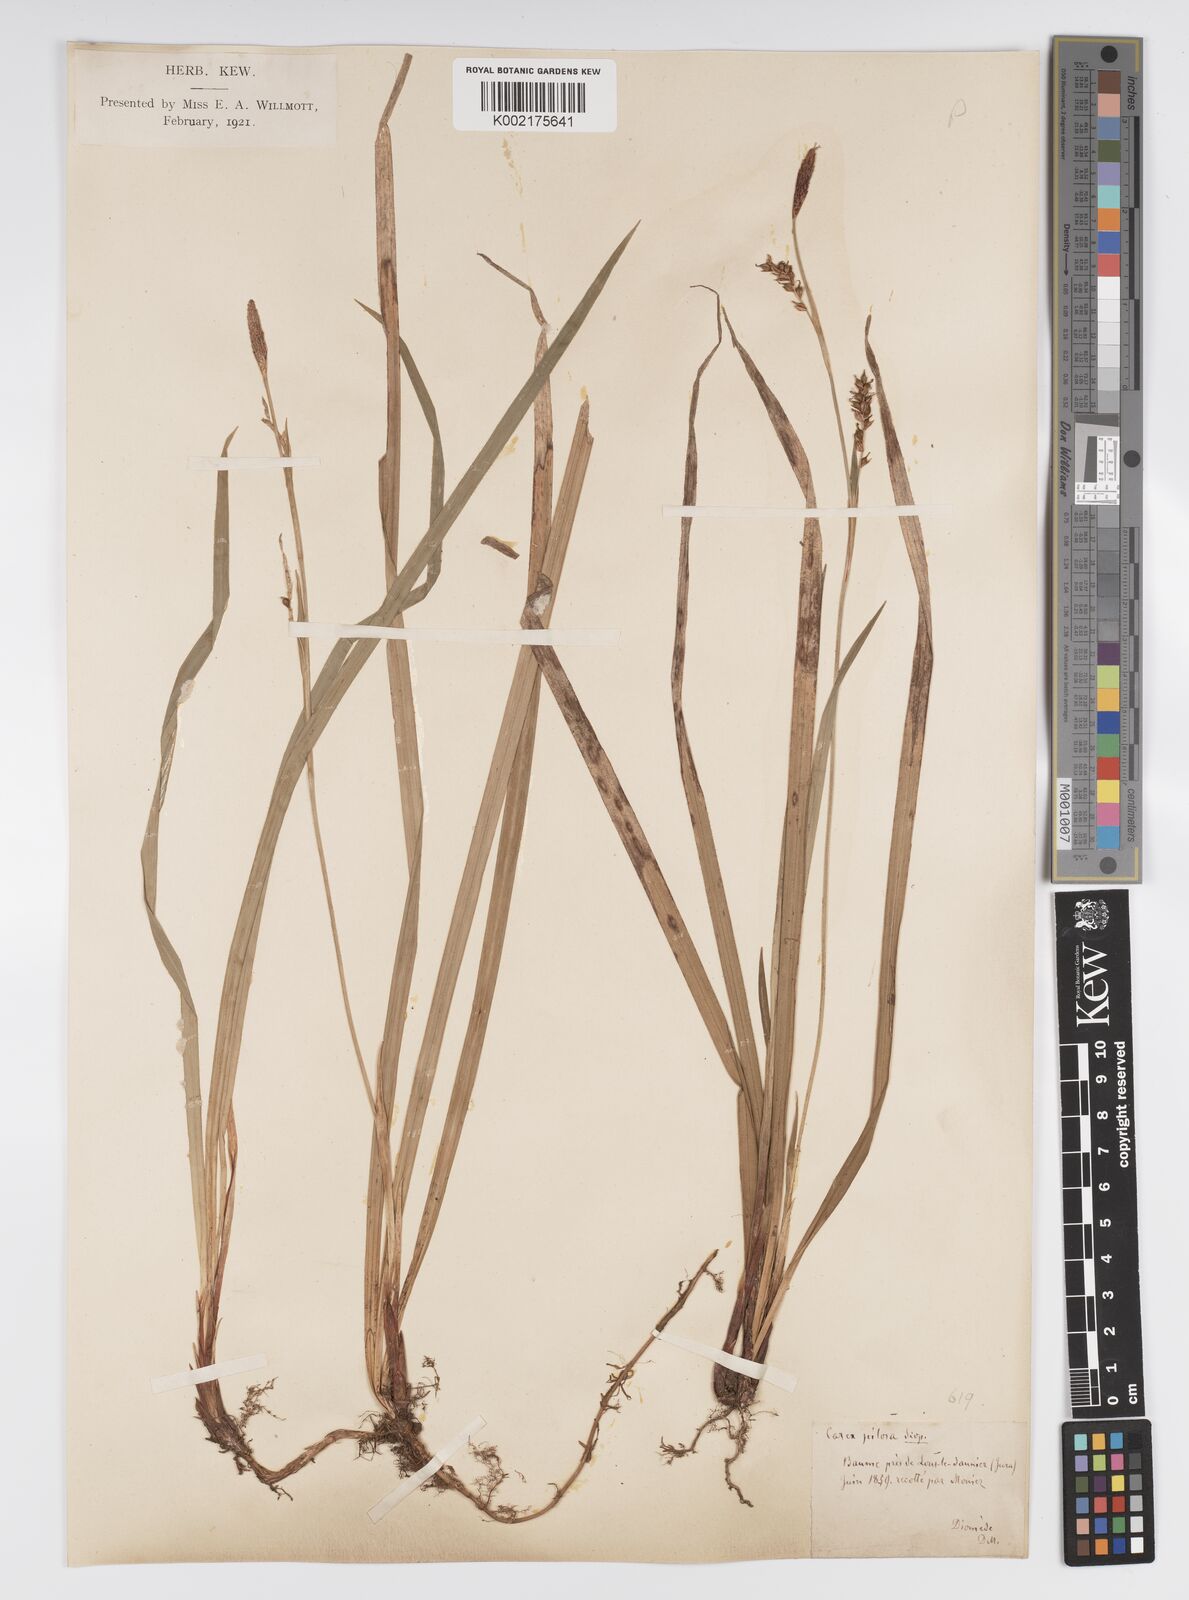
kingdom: Plantae
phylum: Tracheophyta
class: Liliopsida
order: Poales
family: Cyperaceae
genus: Carex
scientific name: Carex pilosa
